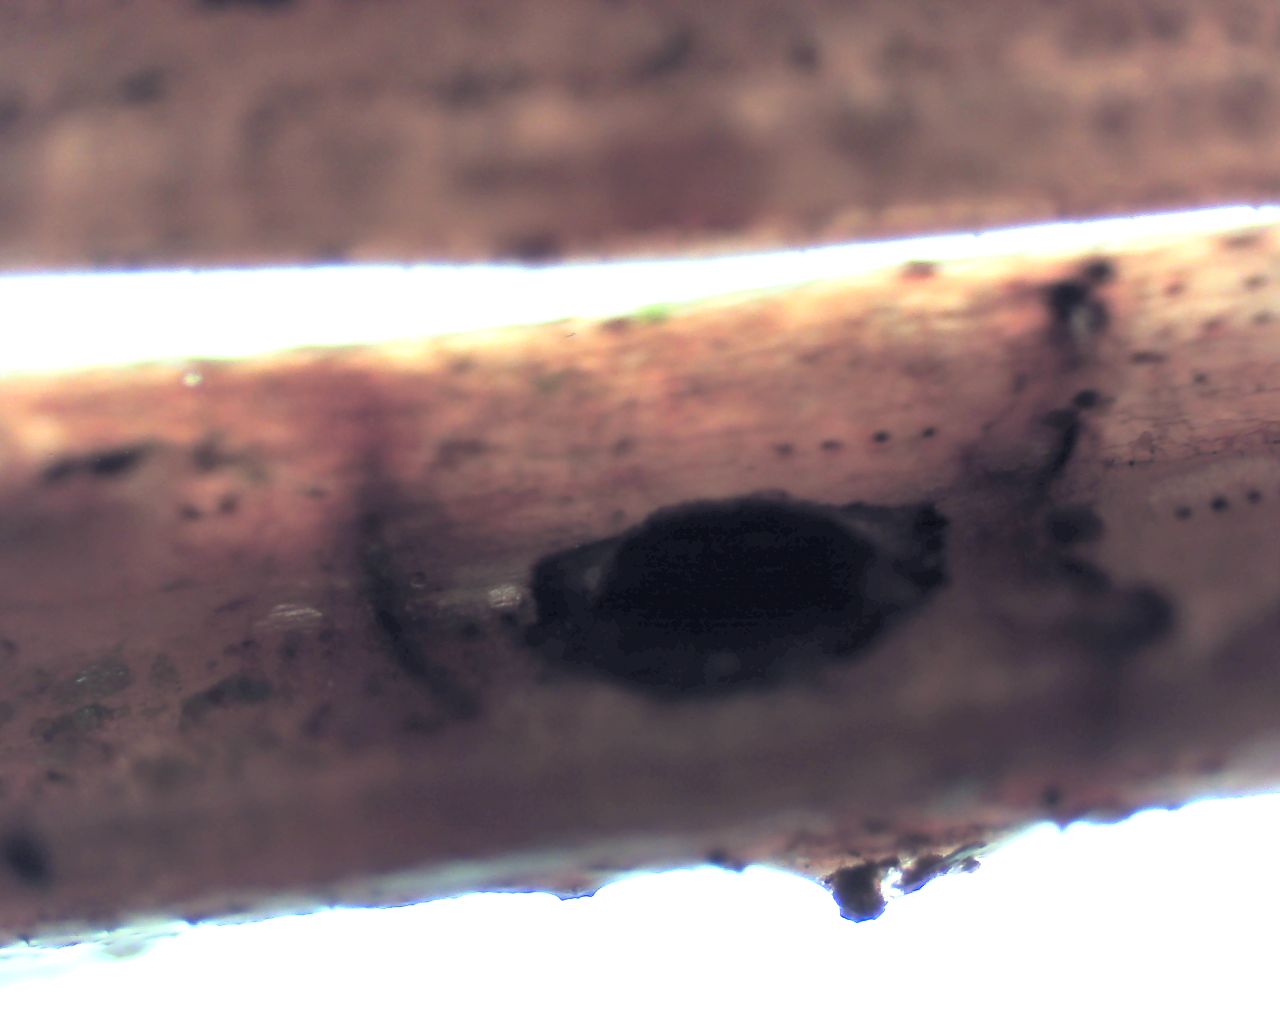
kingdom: Fungi
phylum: Ascomycota
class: Leotiomycetes
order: Rhytismatales
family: Rhytismataceae
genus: Lophodermium
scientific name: Lophodermium
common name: fureplet
